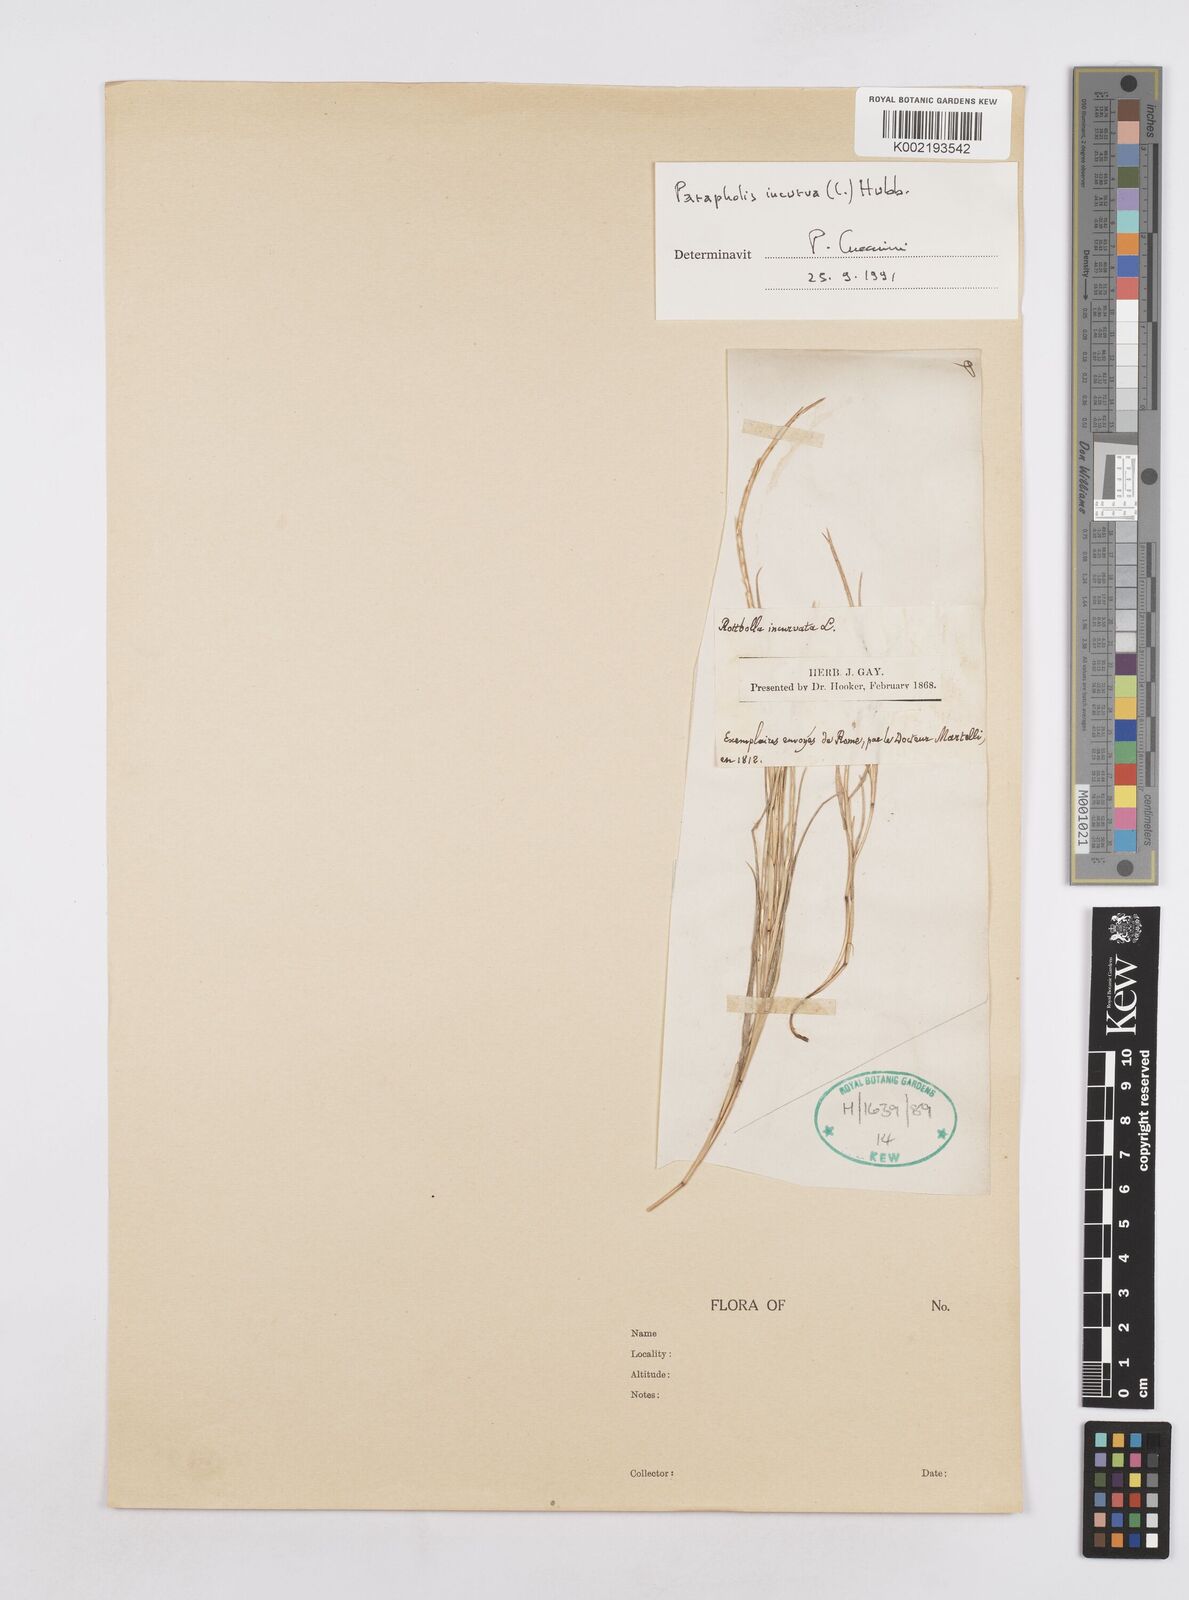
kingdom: Plantae
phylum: Tracheophyta
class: Liliopsida
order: Poales
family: Poaceae
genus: Parapholis
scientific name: Parapholis incurva
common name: Curved sicklegrass
